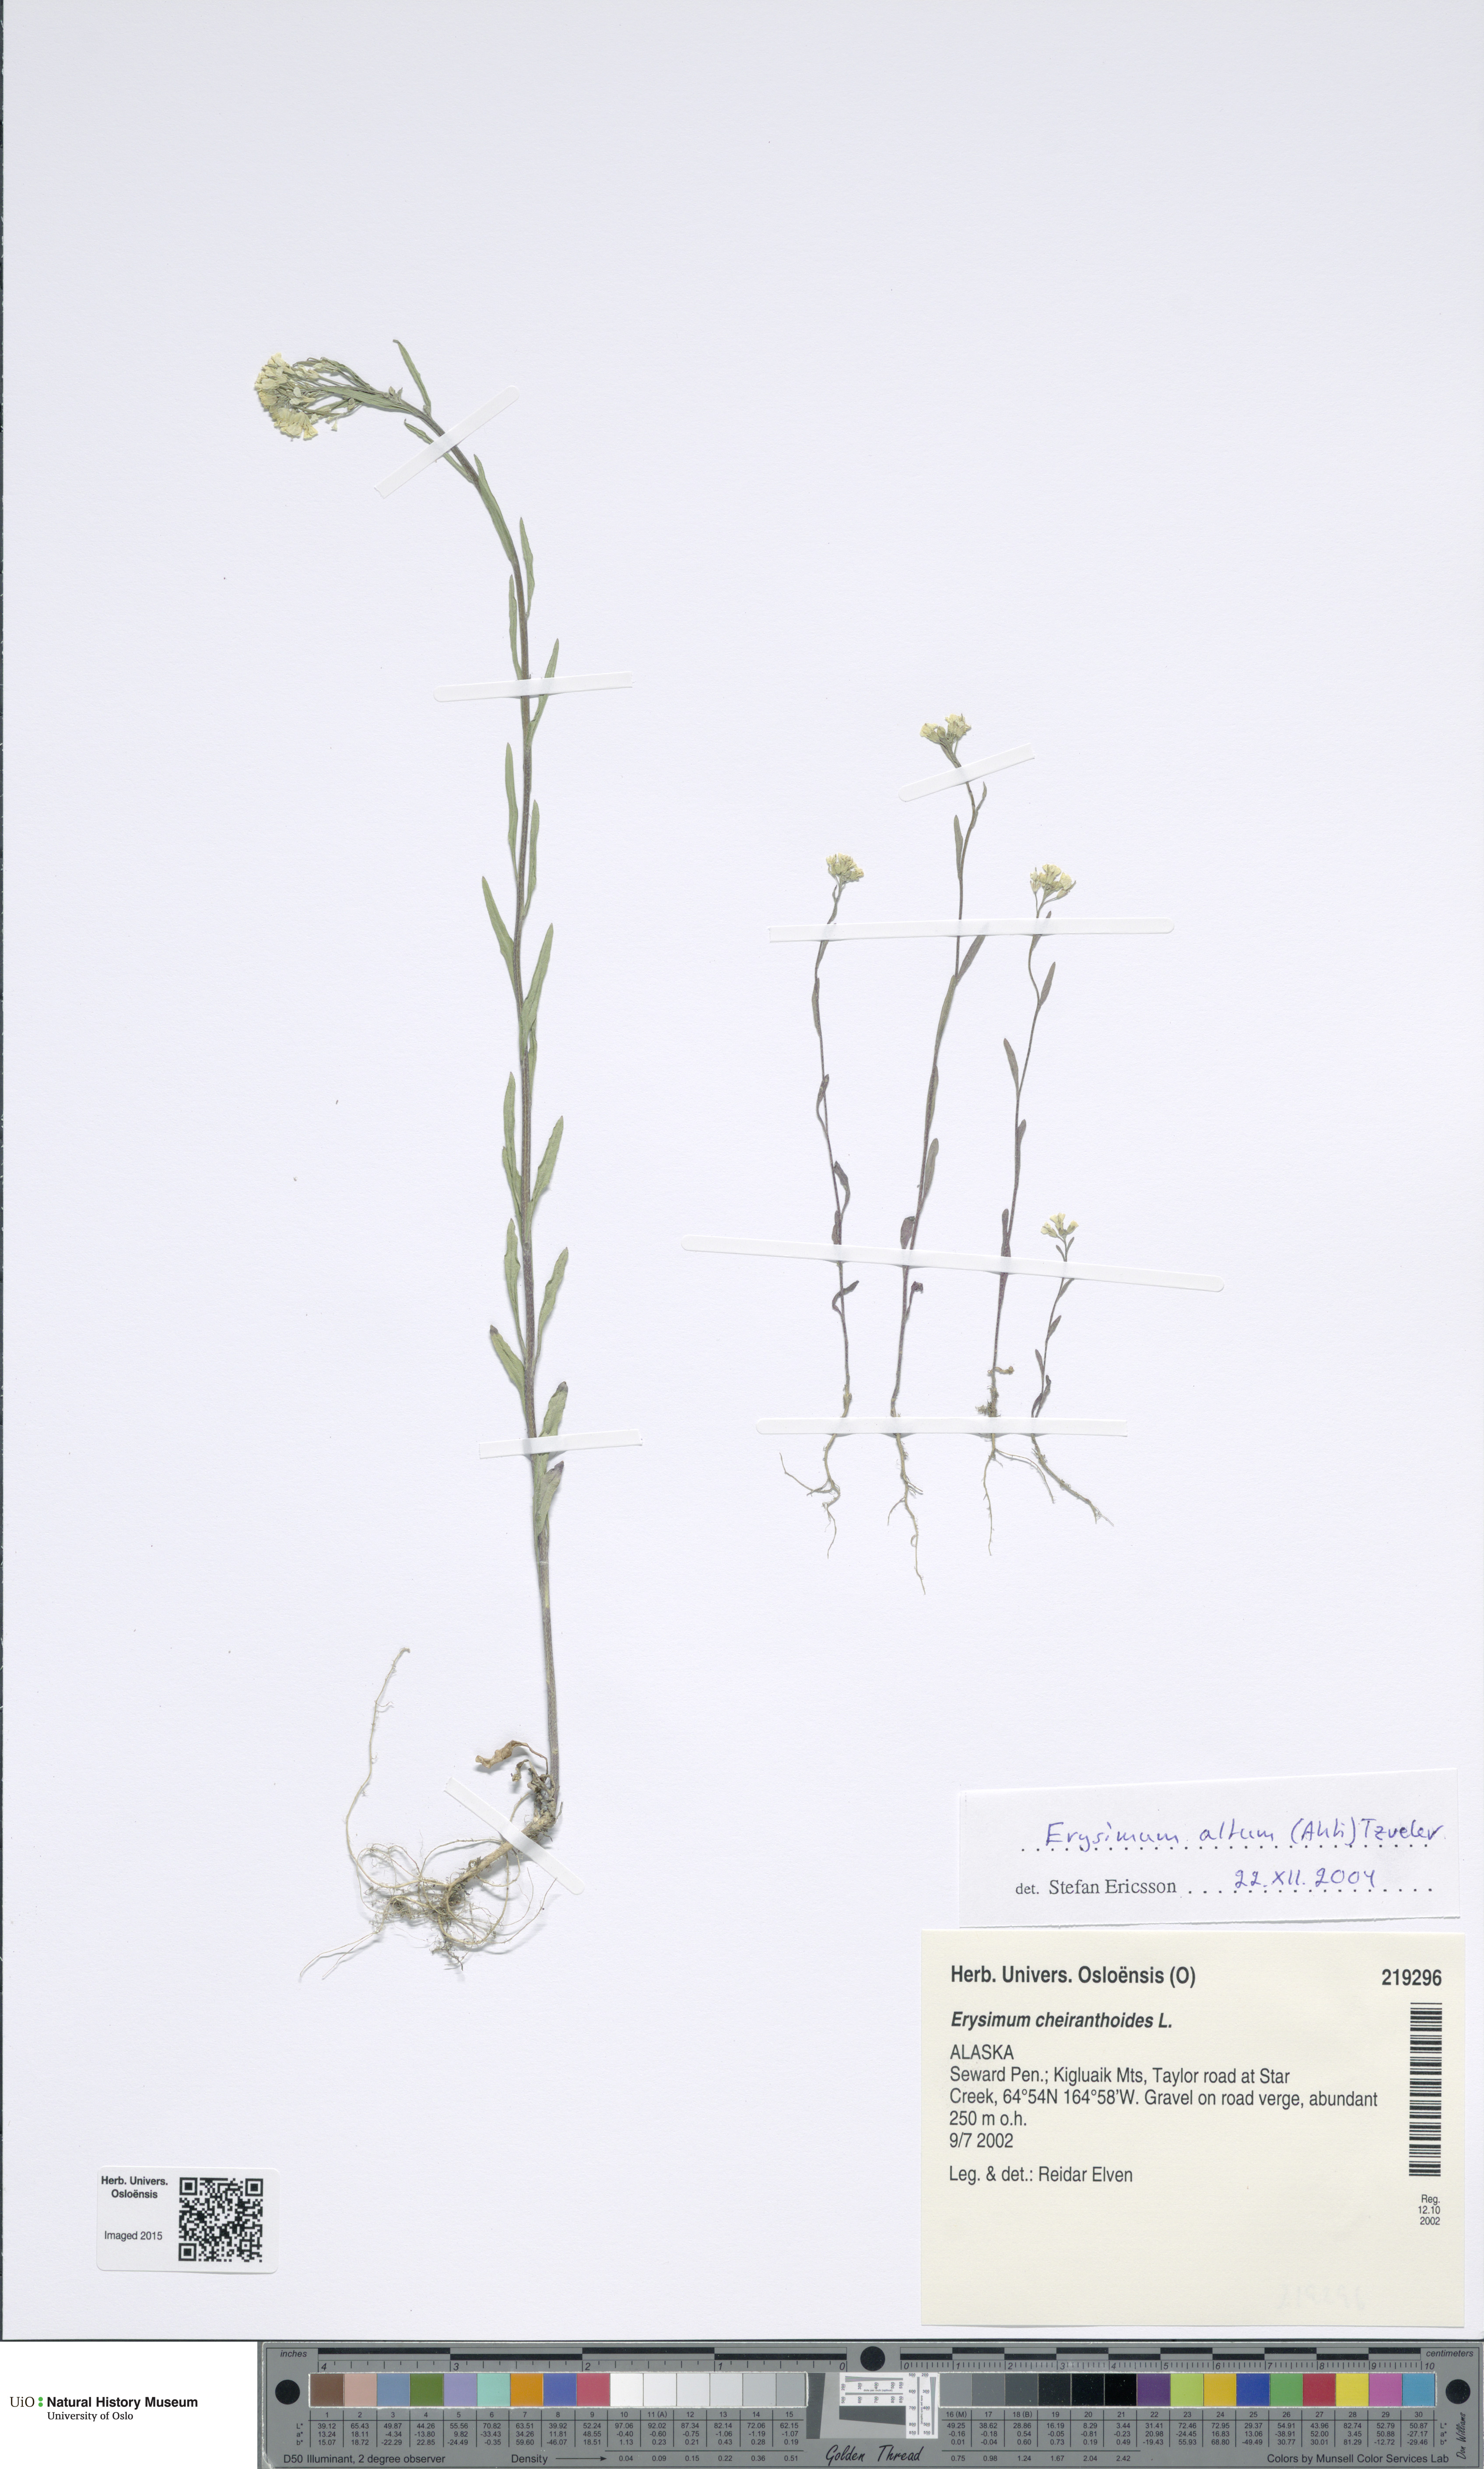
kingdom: Plantae
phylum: Tracheophyta
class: Magnoliopsida
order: Brassicales
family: Brassicaceae
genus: Erysimum
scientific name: Erysimum cheiranthoides
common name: Treacle mustard
